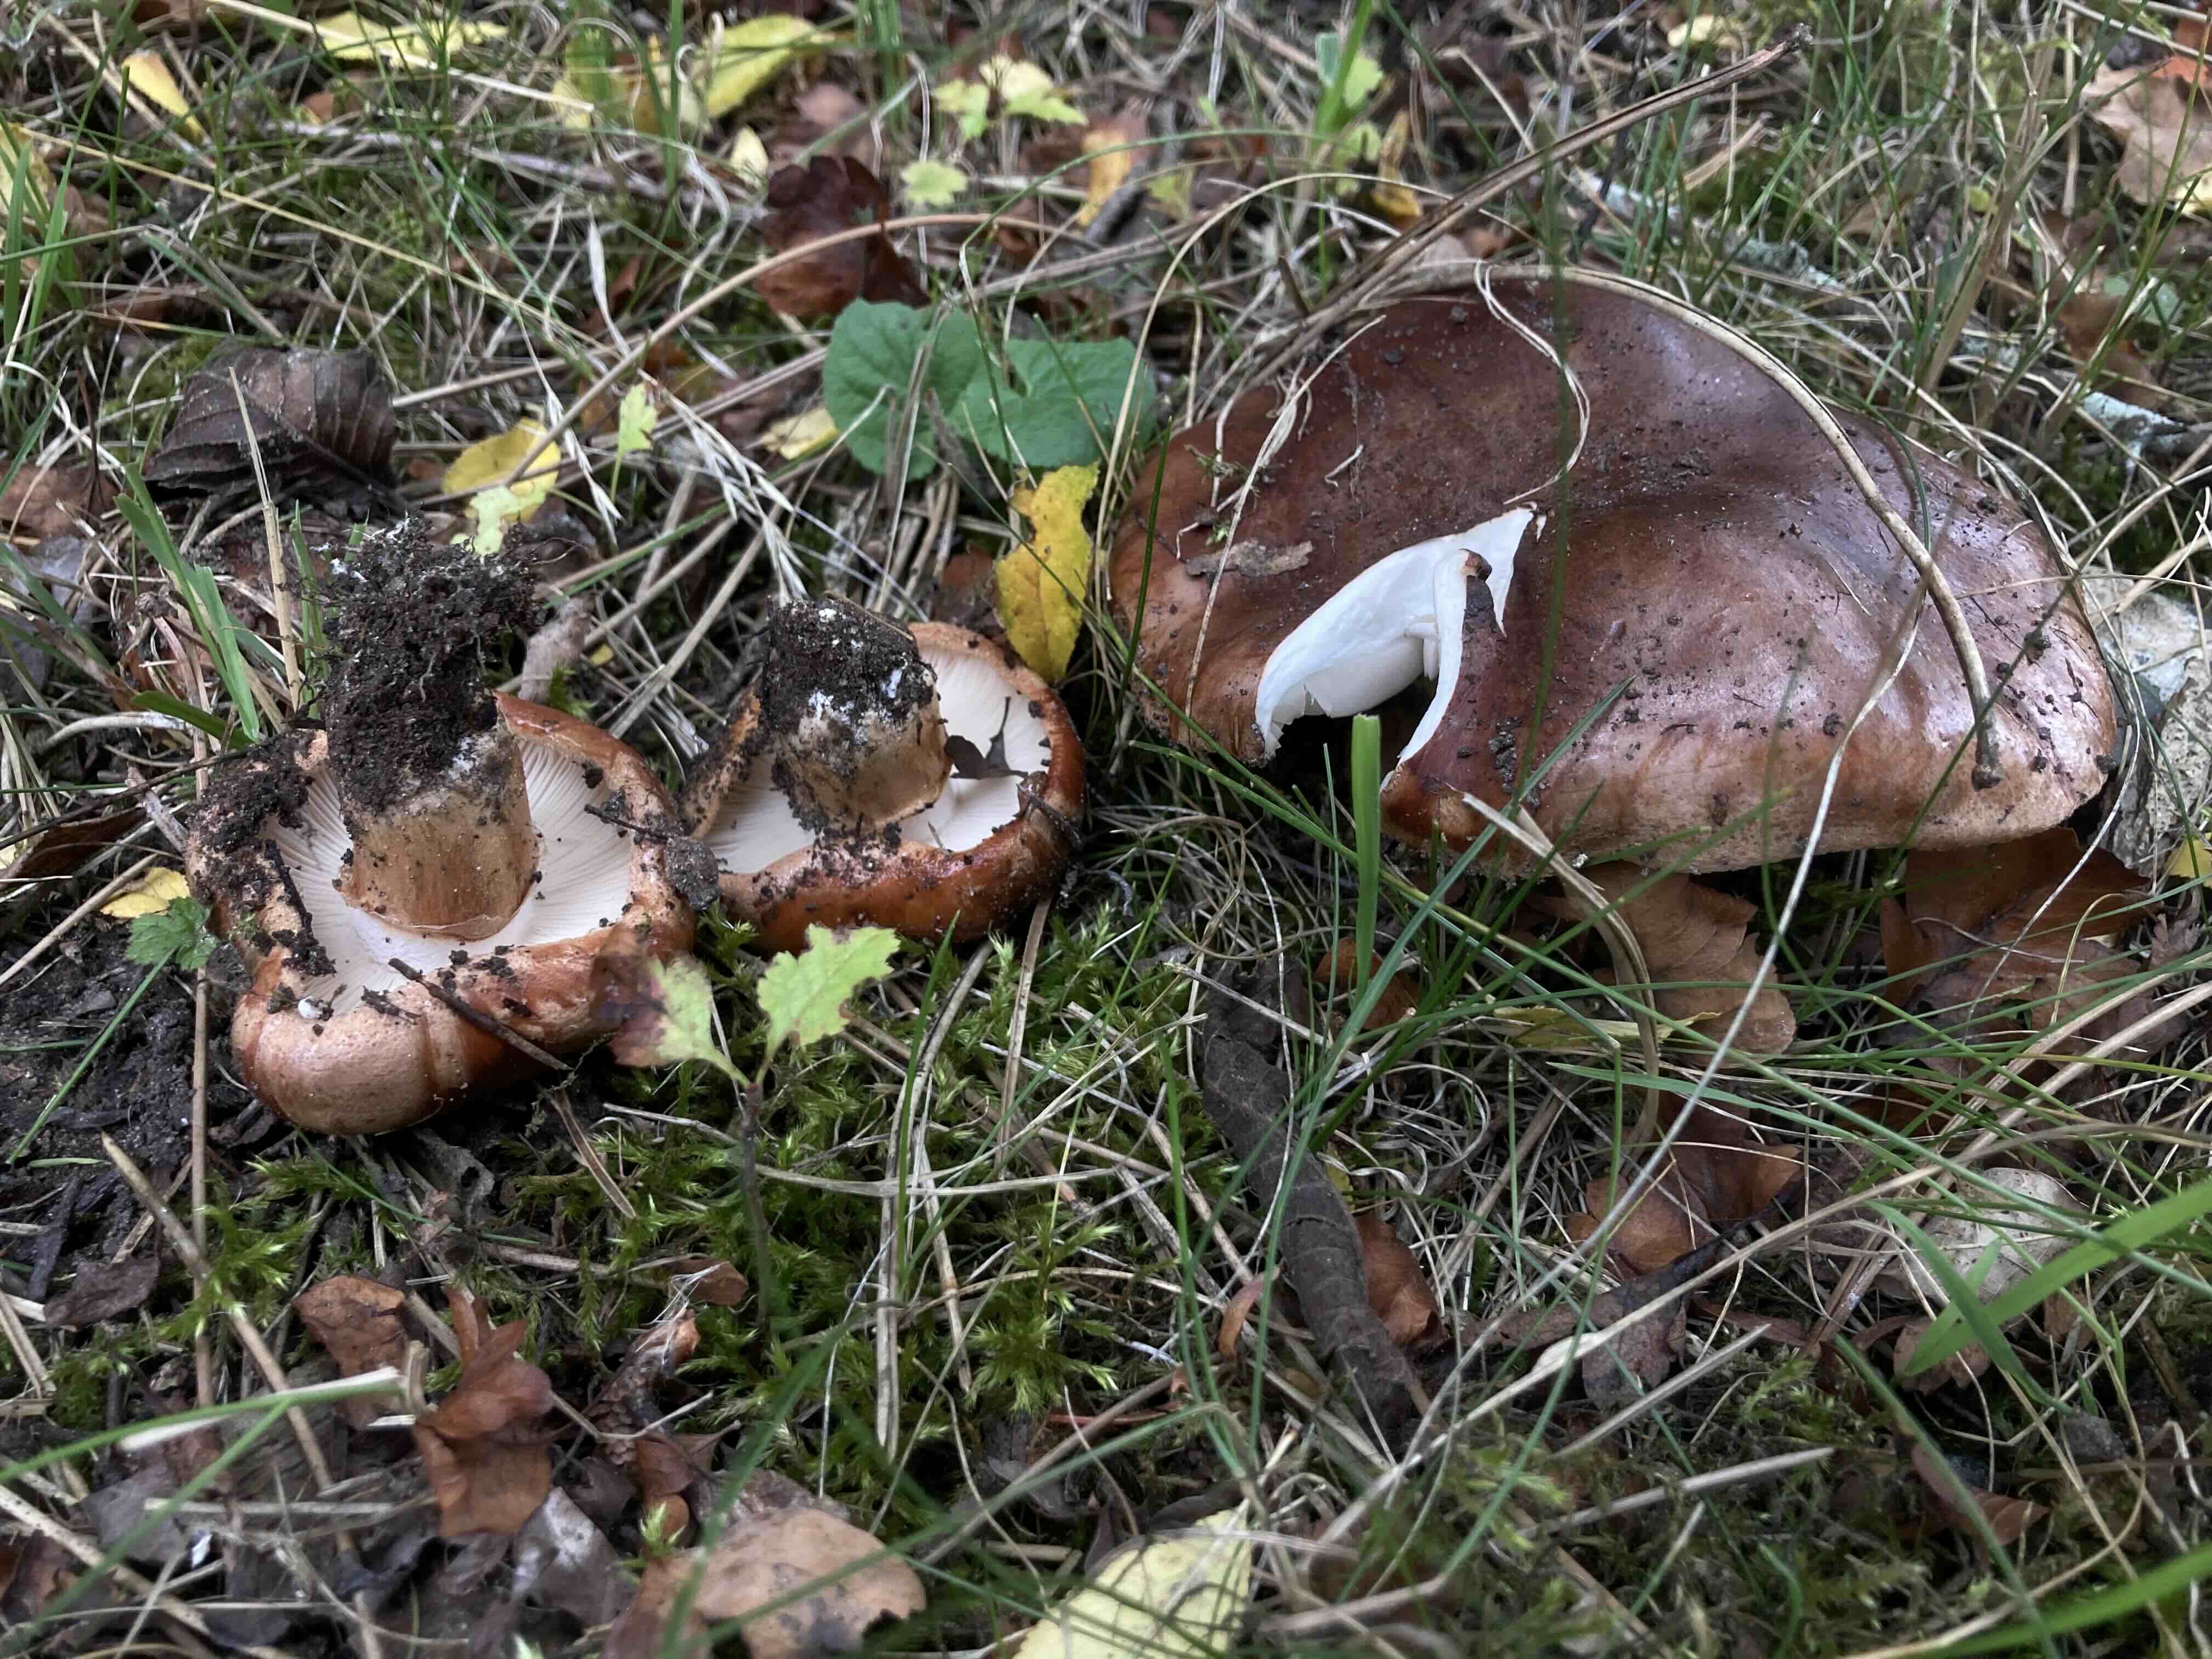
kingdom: Fungi
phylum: Basidiomycota
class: Agaricomycetes
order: Agaricales
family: Tricholomataceae
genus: Tricholoma
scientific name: Tricholoma fracticum
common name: hvidhalset ridderhat
